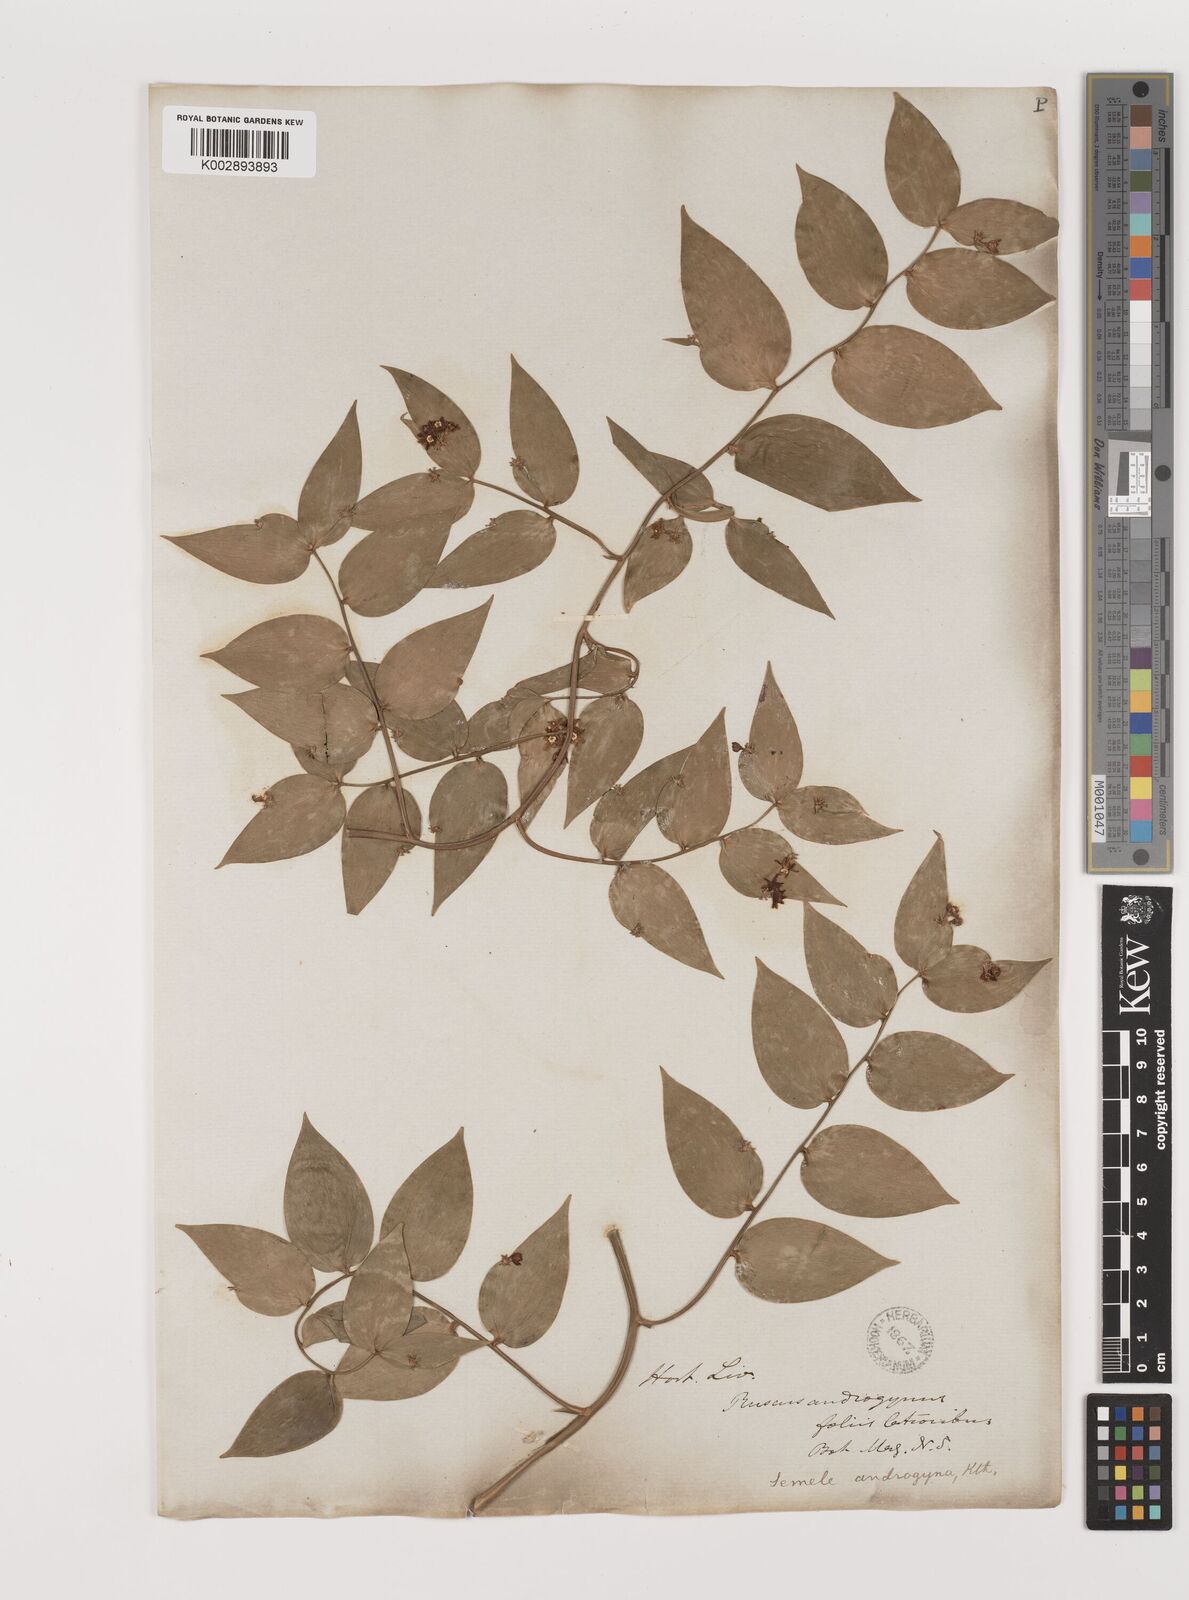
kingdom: Plantae
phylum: Tracheophyta
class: Liliopsida
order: Asparagales
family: Asparagaceae
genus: Semele
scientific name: Semele androgyna
